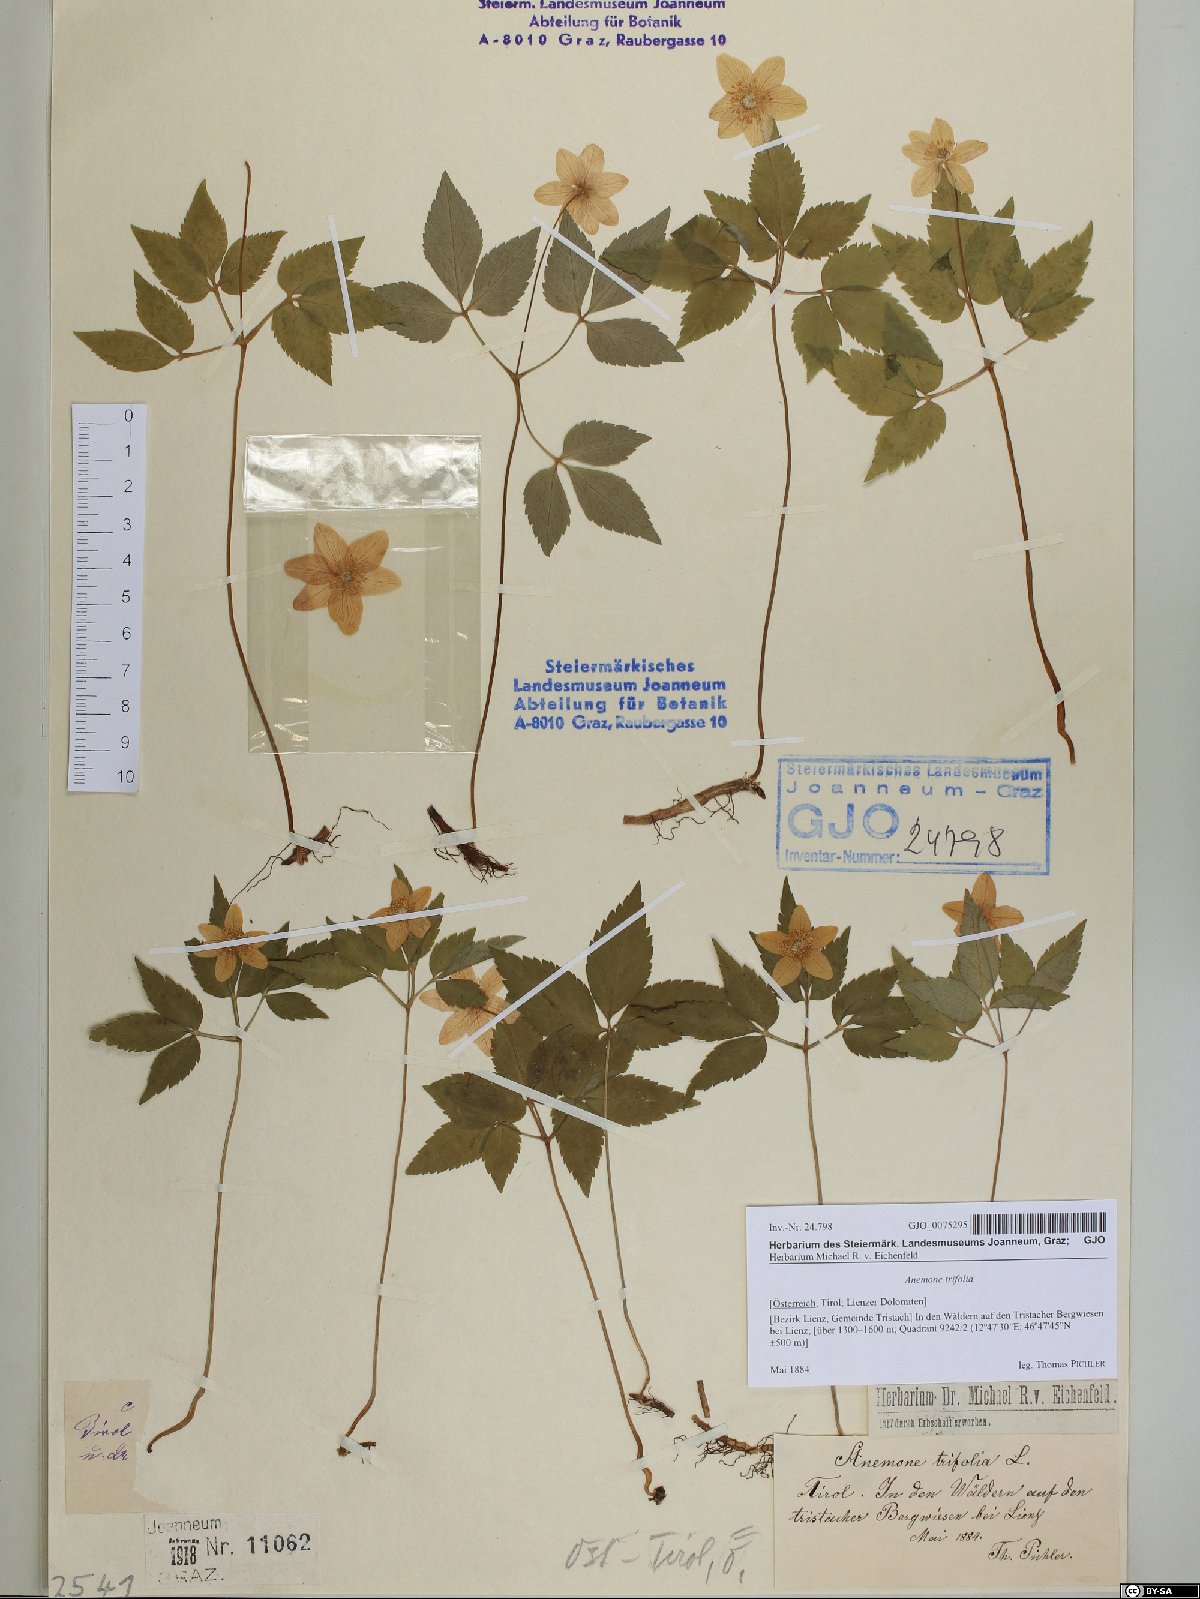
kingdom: Plantae
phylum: Tracheophyta
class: Magnoliopsida
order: Ranunculales
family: Ranunculaceae
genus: Anemone
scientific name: Anemone trifolia
